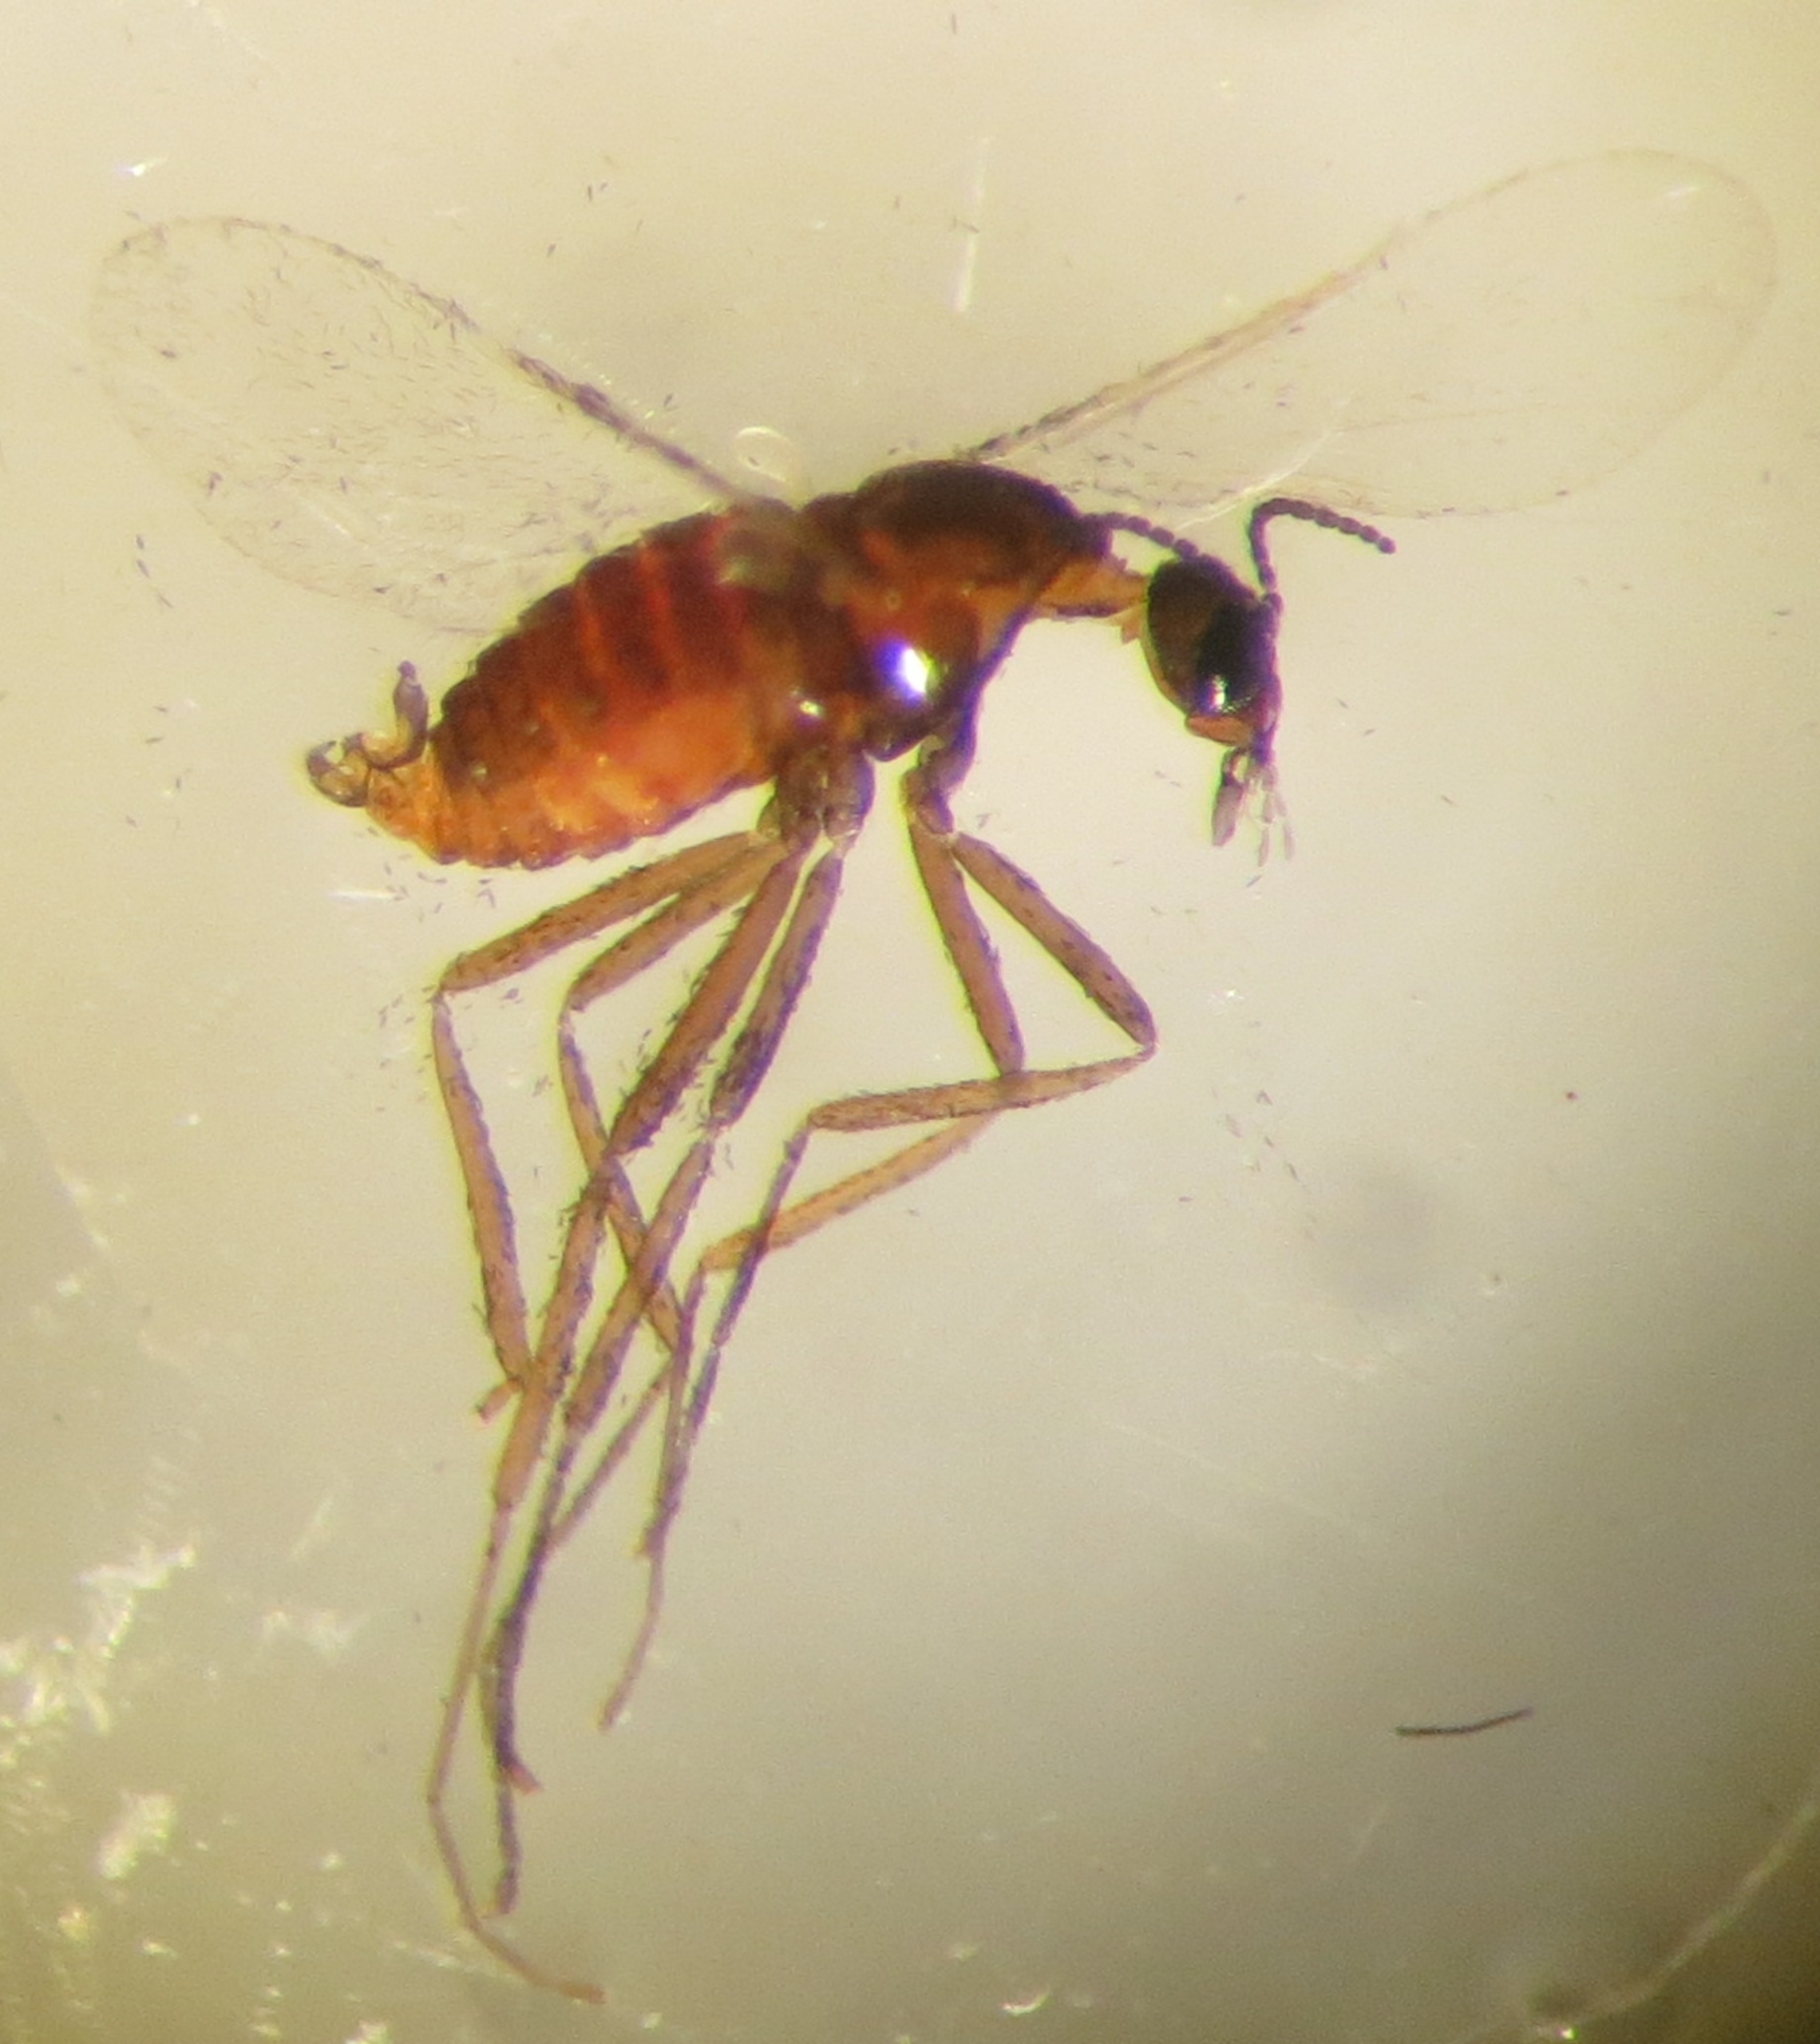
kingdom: Animalia
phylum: Arthropoda
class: Insecta
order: Diptera
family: Cecidomyiidae
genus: Ozirhincus
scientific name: Ozirhincus longicollis
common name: Okseøjefrøgalmyg
